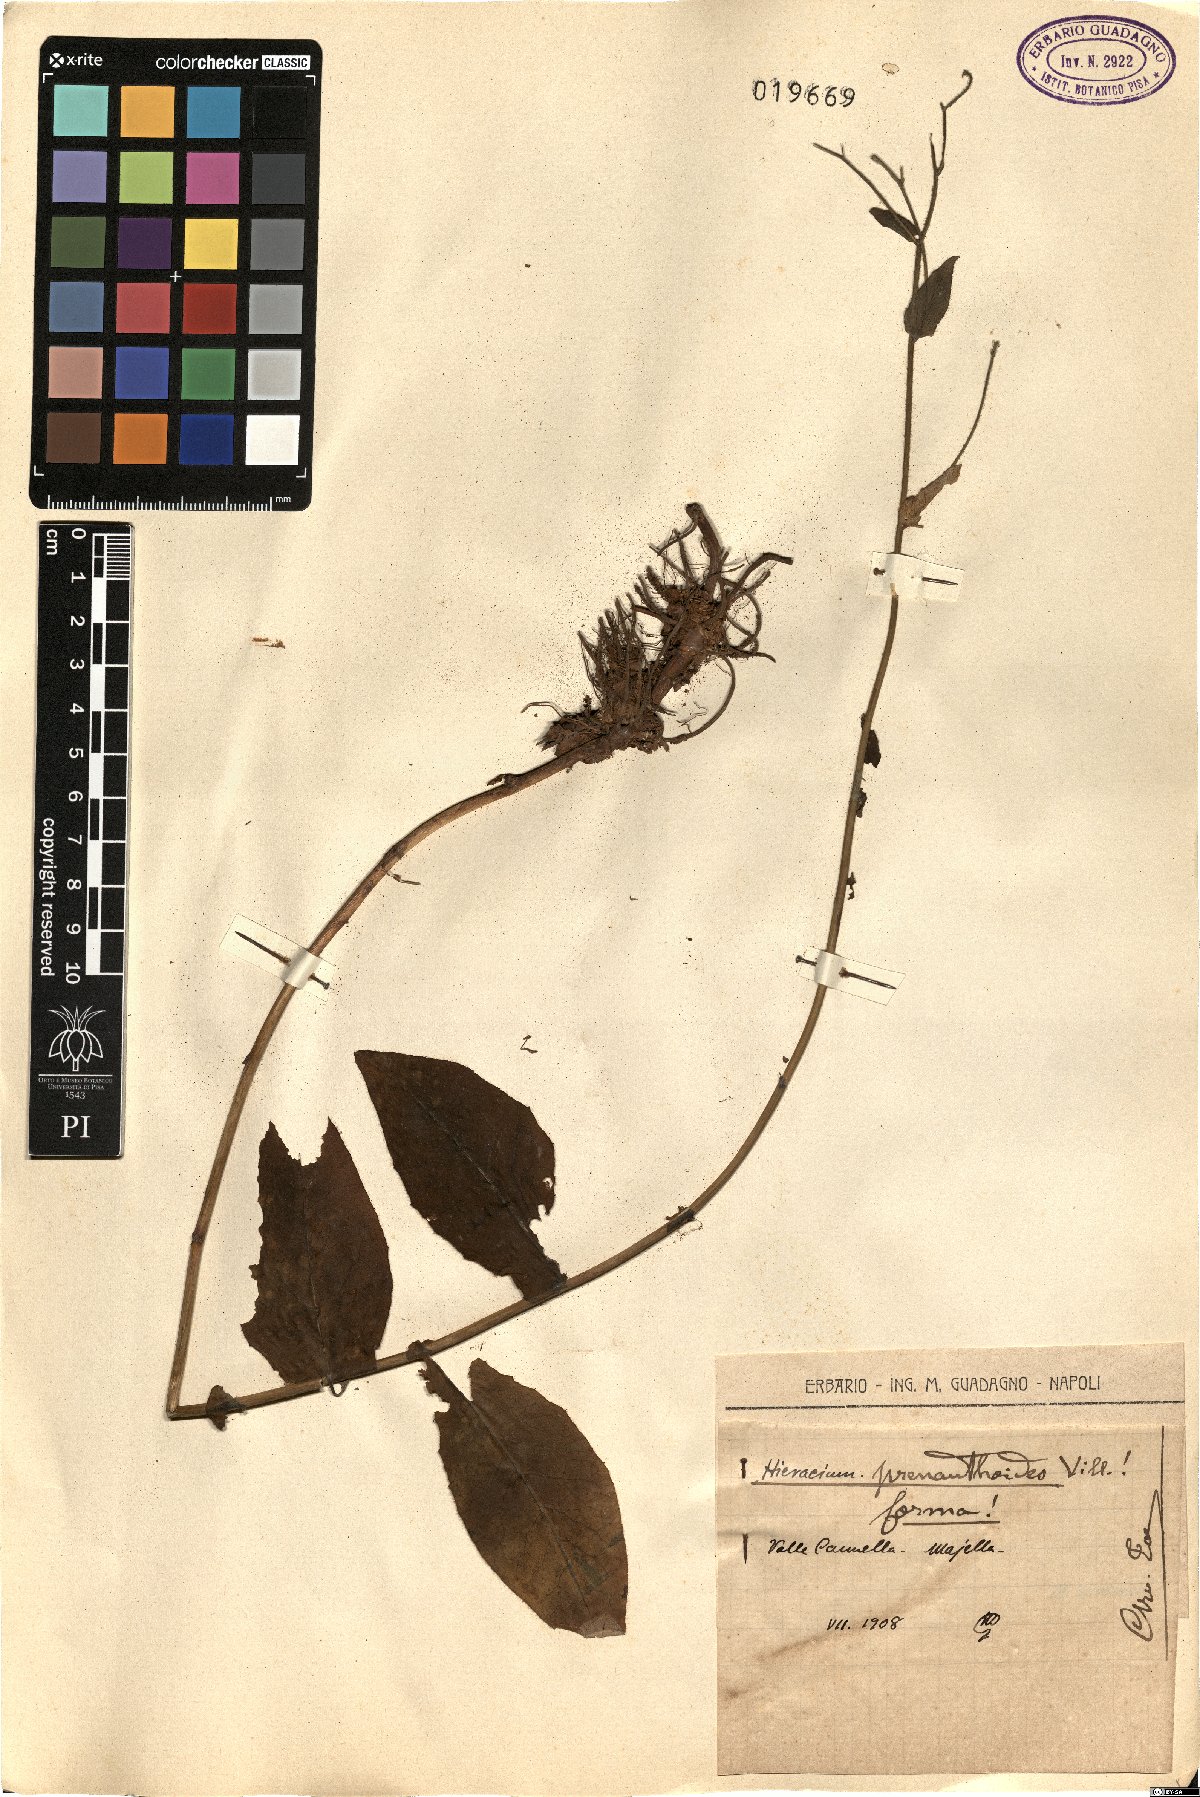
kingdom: Plantae
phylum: Tracheophyta
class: Magnoliopsida
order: Asterales
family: Asteraceae
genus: Hieracium
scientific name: Hieracium prenanthoides
